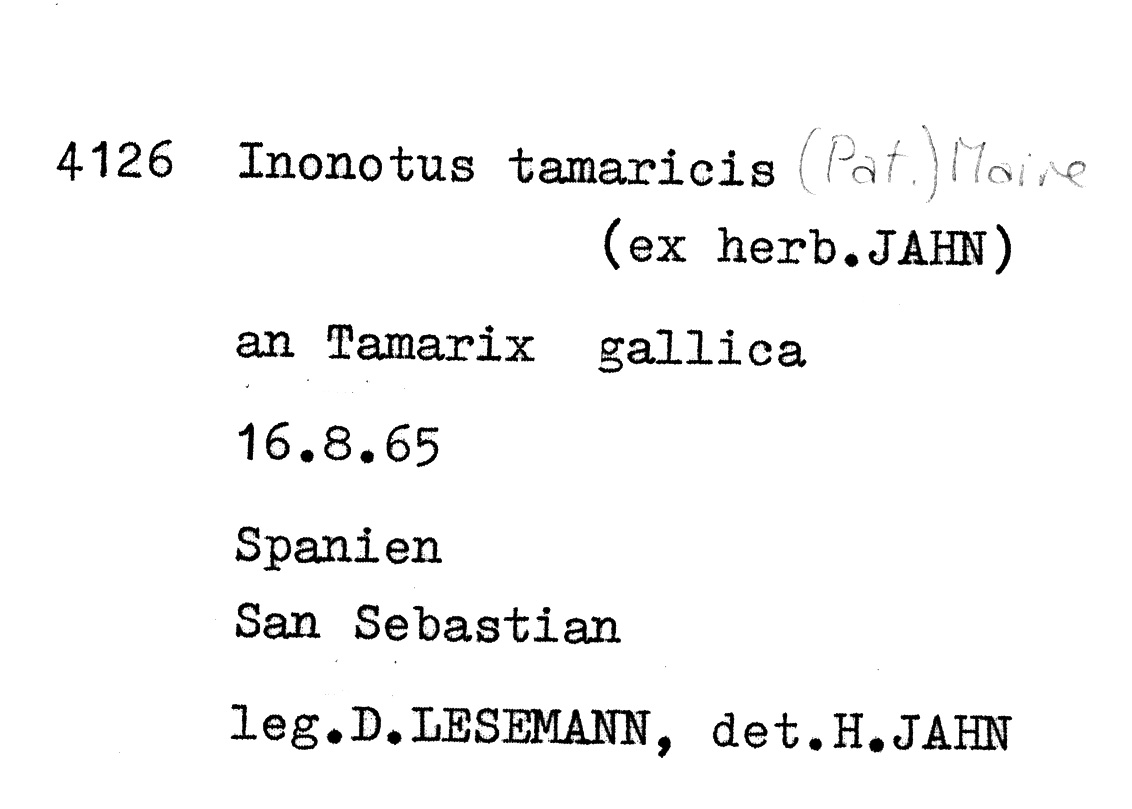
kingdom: Fungi
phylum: Basidiomycota
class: Agaricomycetes
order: Hymenochaetales
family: Hymenochaetaceae
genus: Inocutis
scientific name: Inocutis tamaricis
